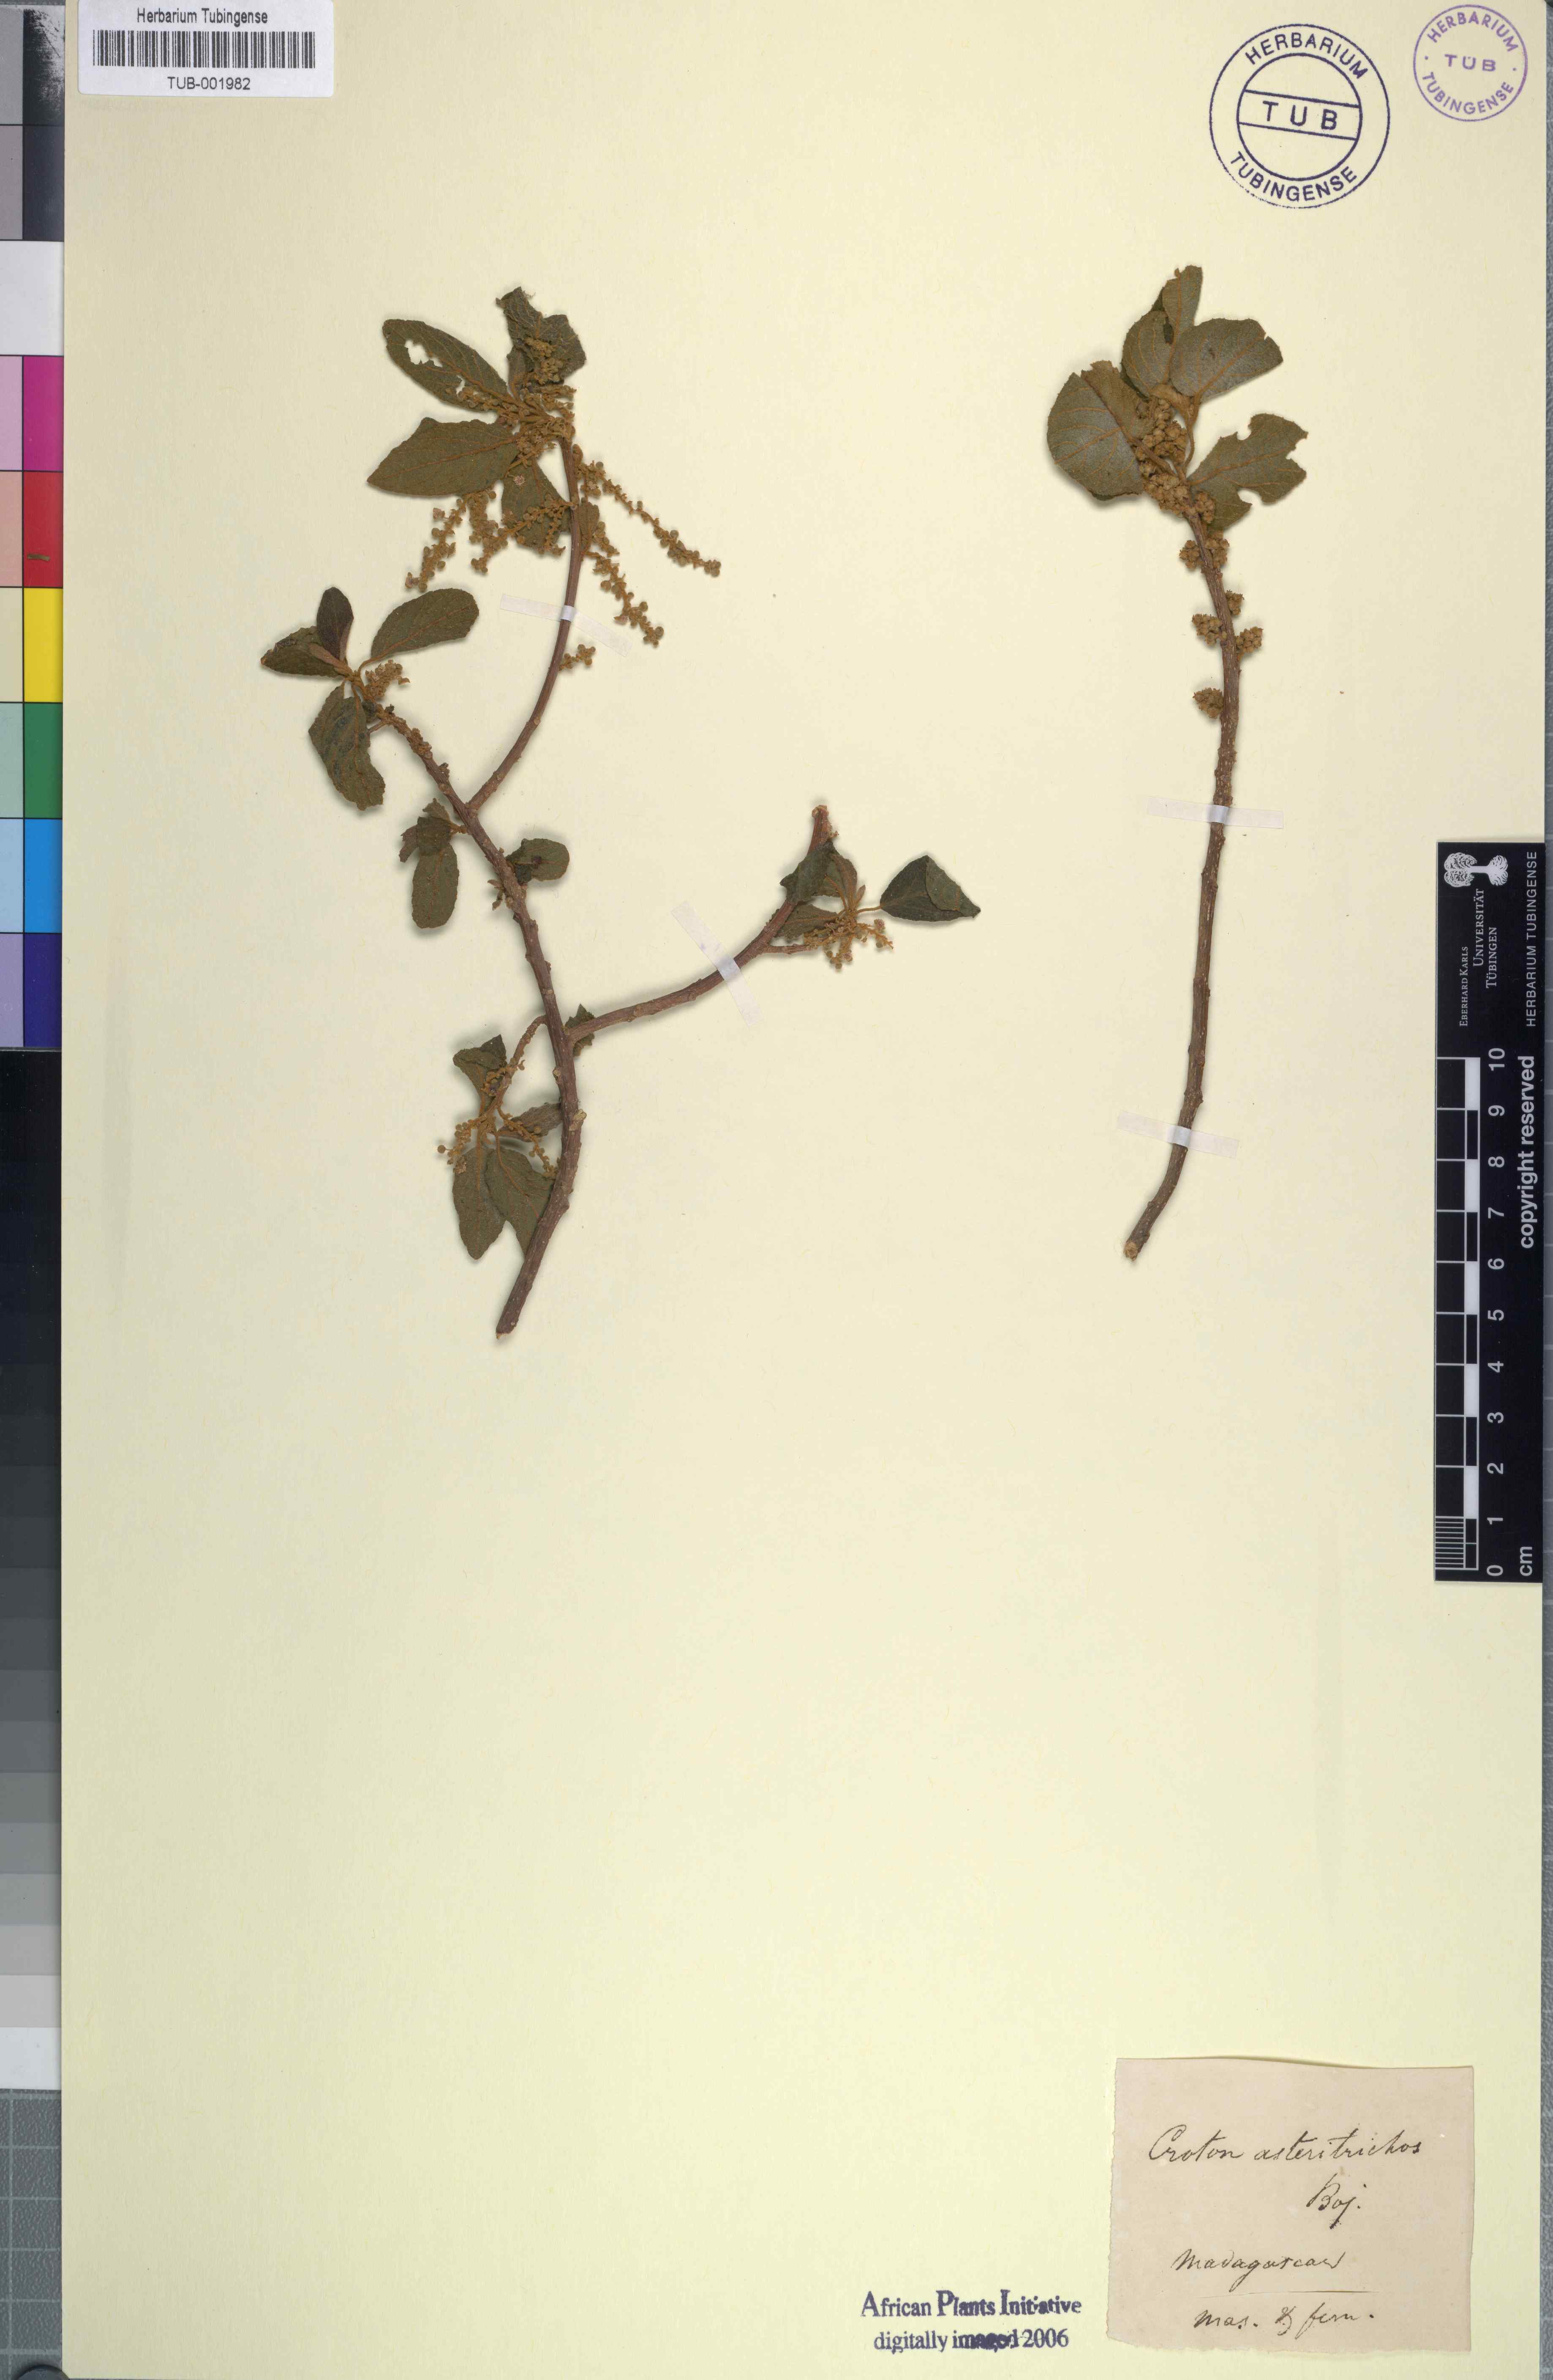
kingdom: Plantae
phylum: Tracheophyta
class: Magnoliopsida
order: Malpighiales
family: Euphorbiaceae
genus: Lobanilia
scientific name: Lobanilia hirtella
